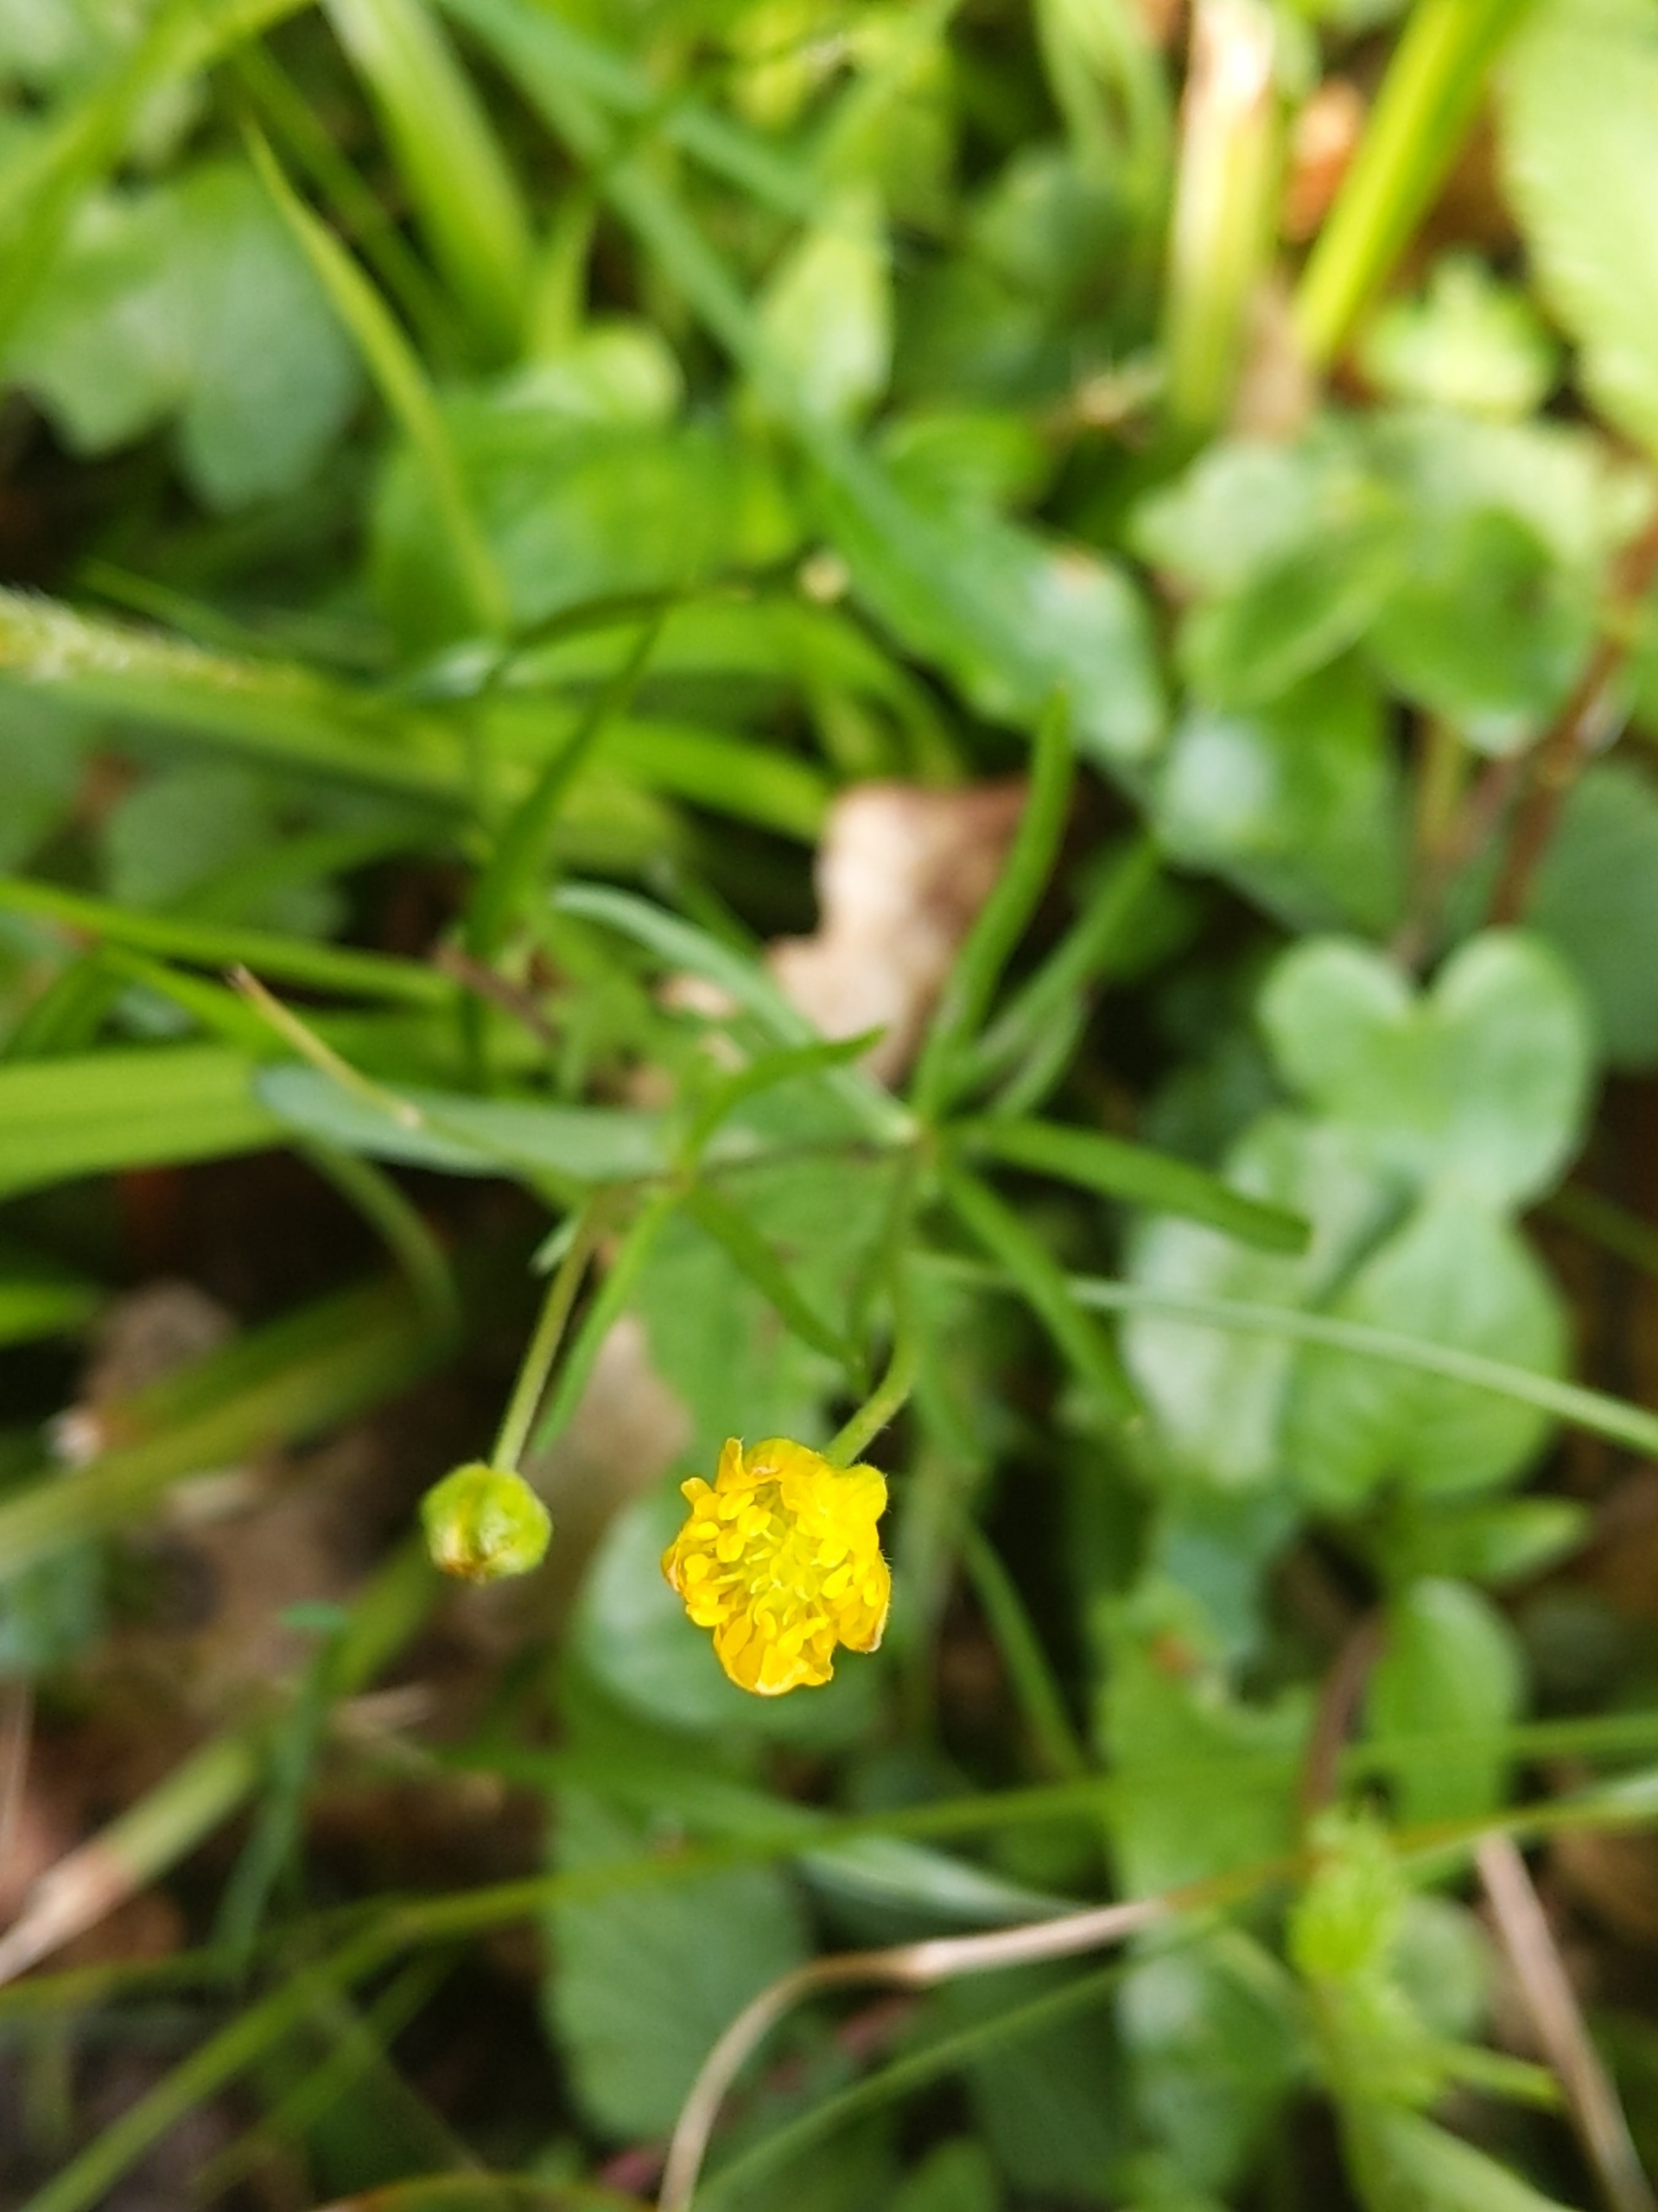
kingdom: Plantae
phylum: Tracheophyta
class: Magnoliopsida
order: Ranunculales
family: Ranunculaceae
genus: Ranunculus
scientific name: Ranunculus auricomus
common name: Nyrebladet ranunkel
